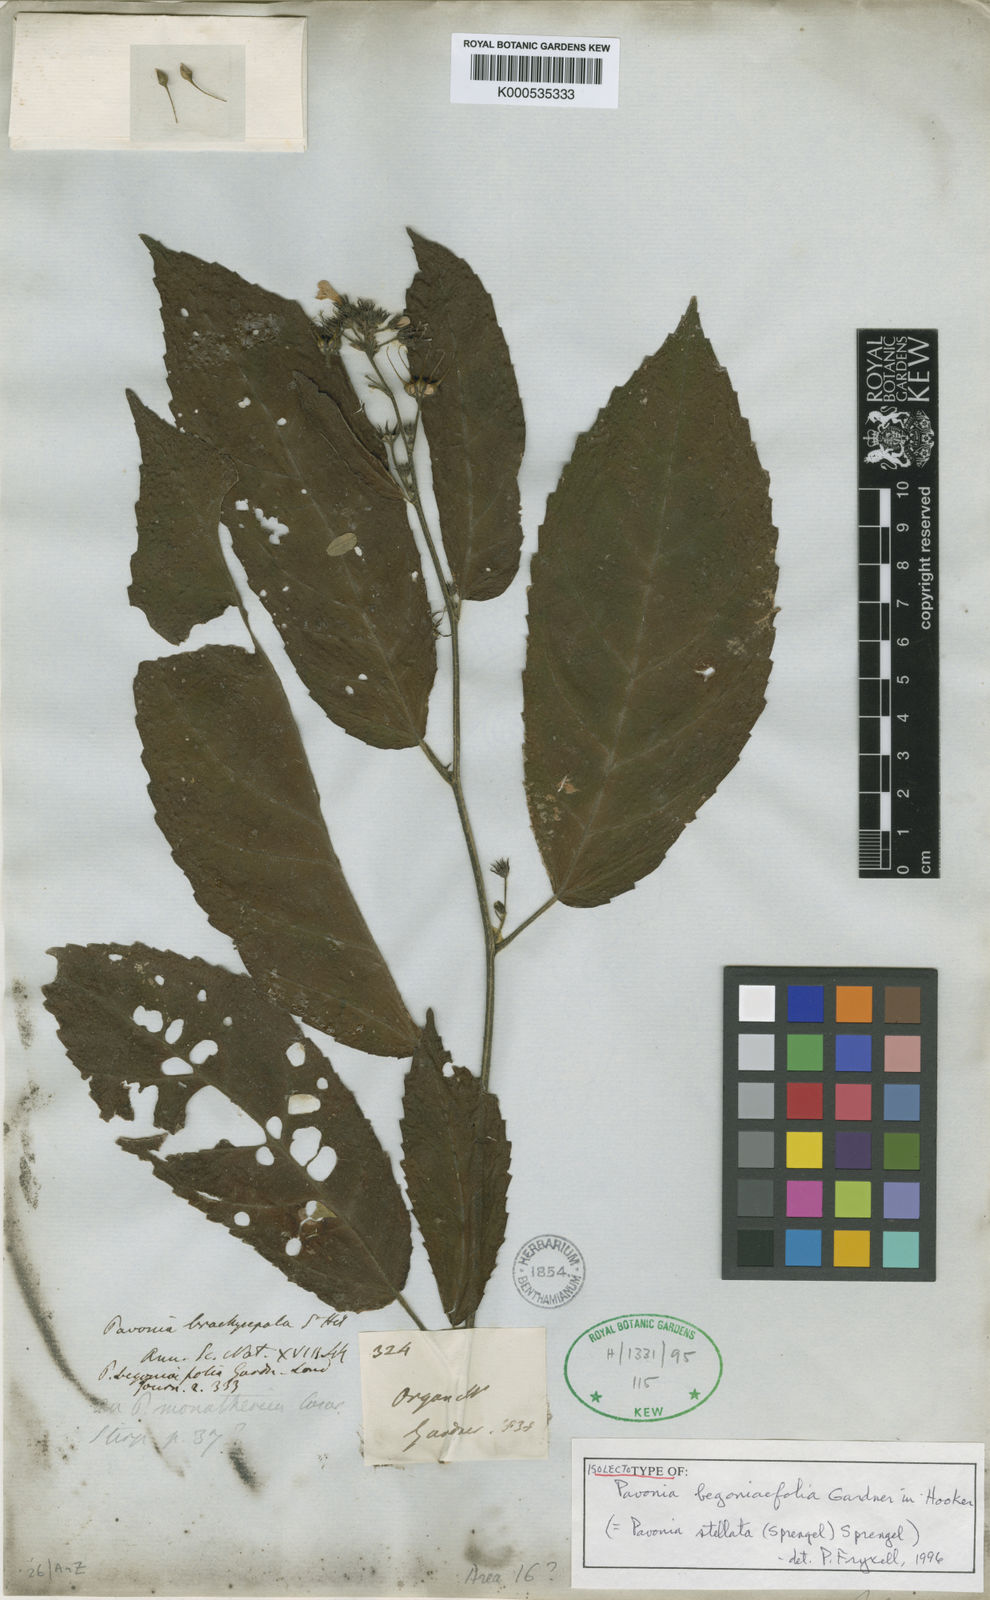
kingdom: Plantae
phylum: Tracheophyta
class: Magnoliopsida
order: Malvales
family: Malvaceae
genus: Pavonia
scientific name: Pavonia
